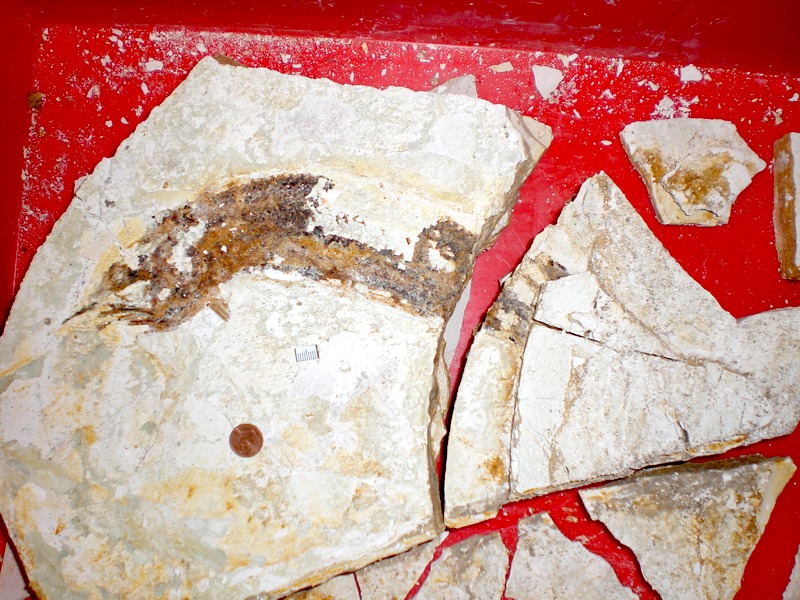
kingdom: Animalia
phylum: Chordata
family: Aspidorhynchidae
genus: Aspidorhynchus
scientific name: Aspidorhynchus sanzenbacheri
